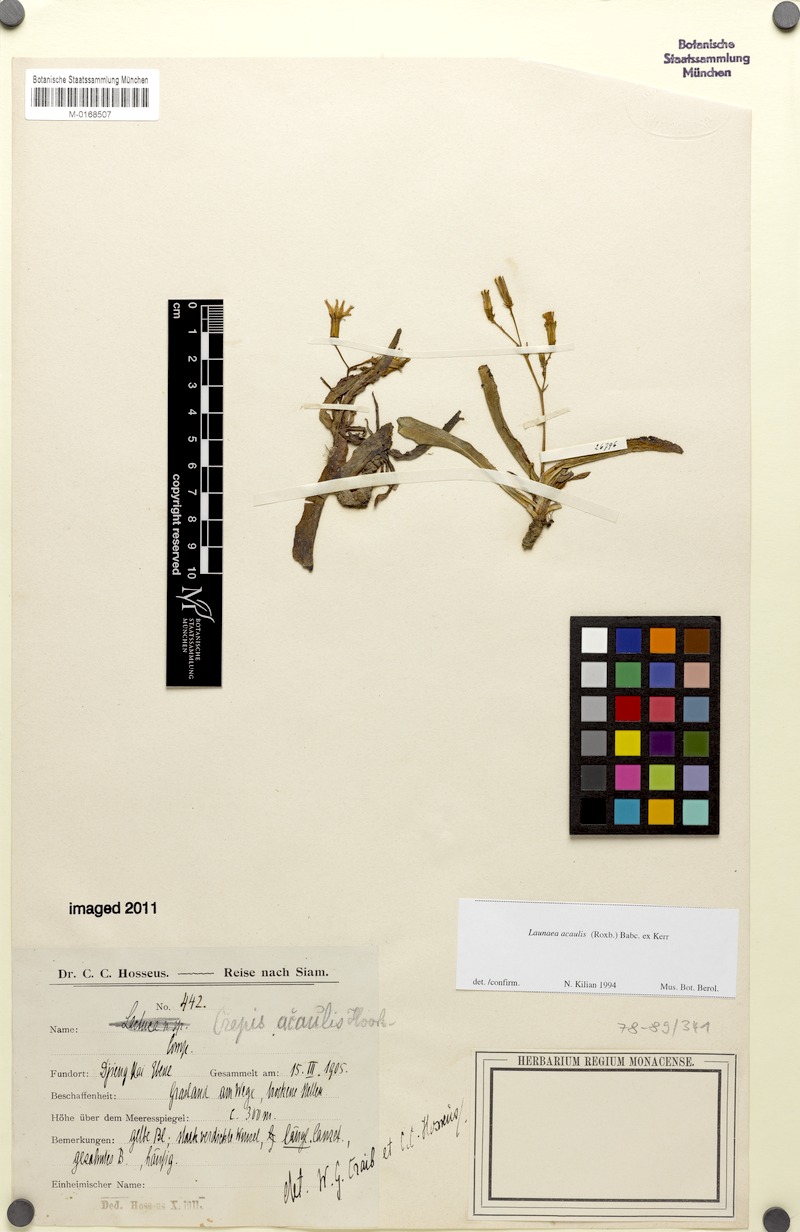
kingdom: Plantae
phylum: Tracheophyta
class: Magnoliopsida
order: Asterales
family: Asteraceae
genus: Launaea
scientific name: Launaea acaulis
